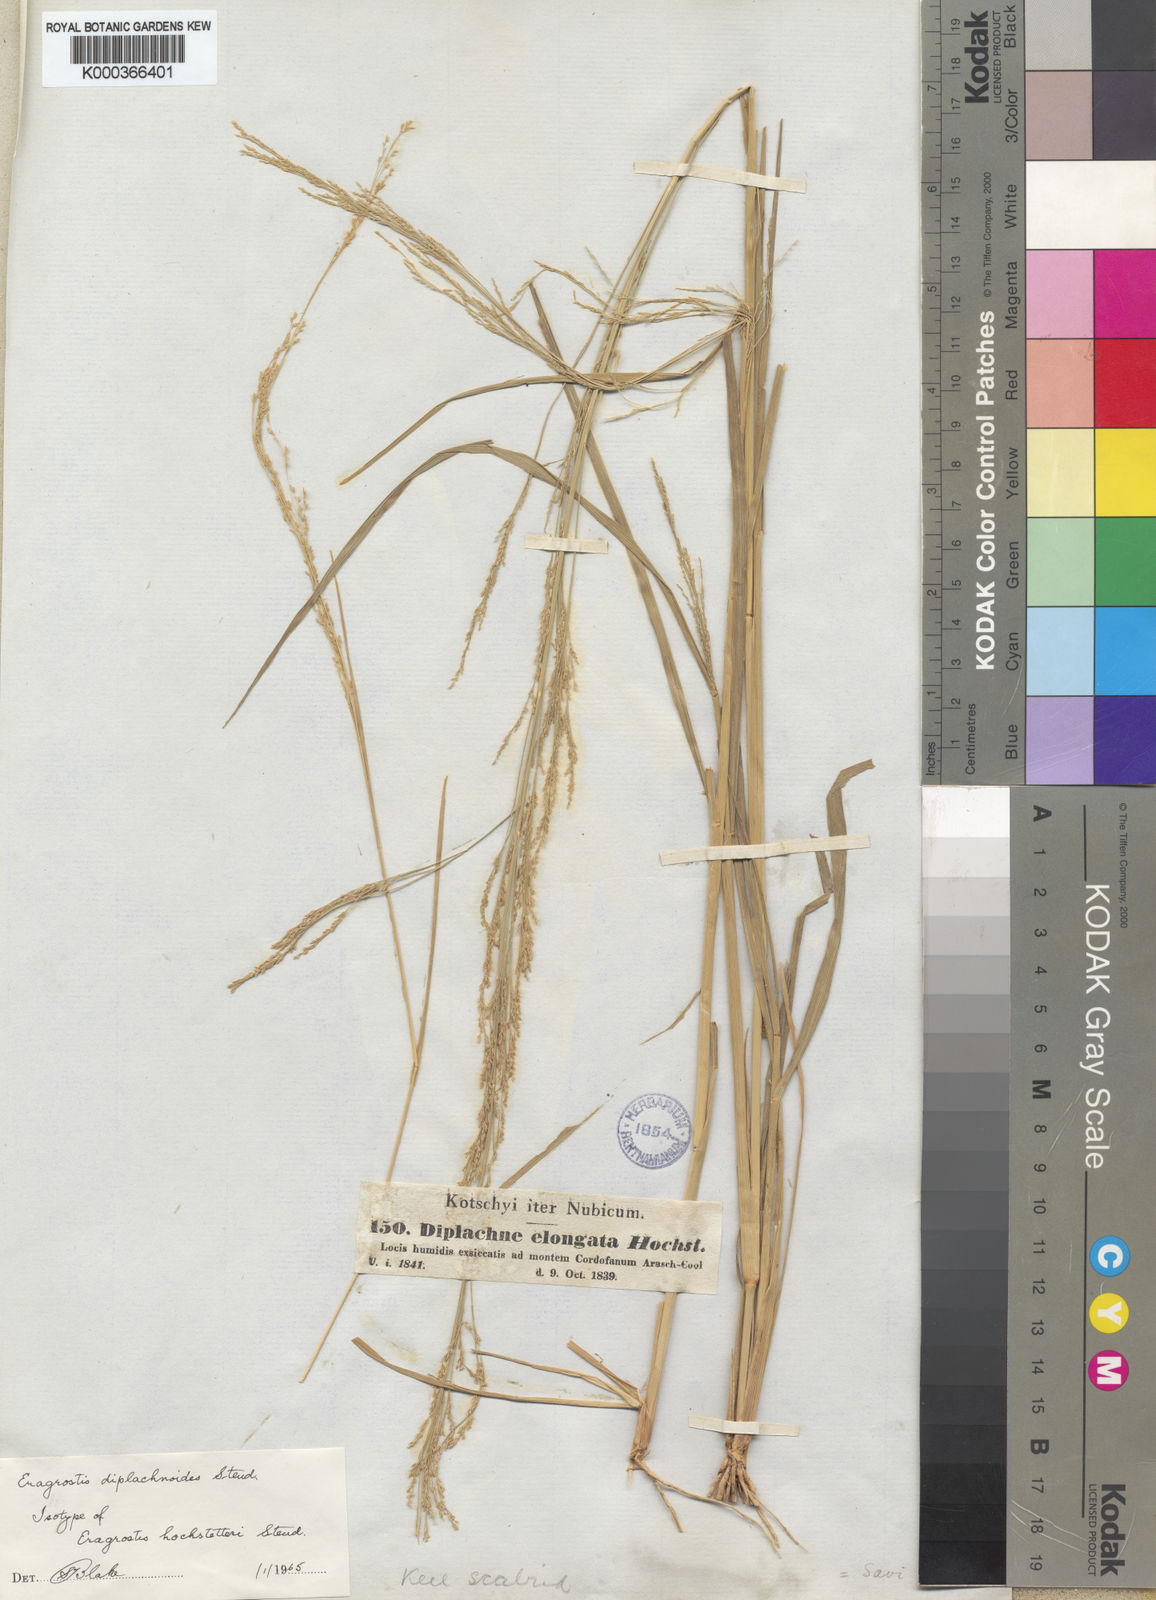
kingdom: Plantae
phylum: Tracheophyta
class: Liliopsida
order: Poales
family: Poaceae
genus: Eragrostis
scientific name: Eragrostis japonica
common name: Pond lovegrass
